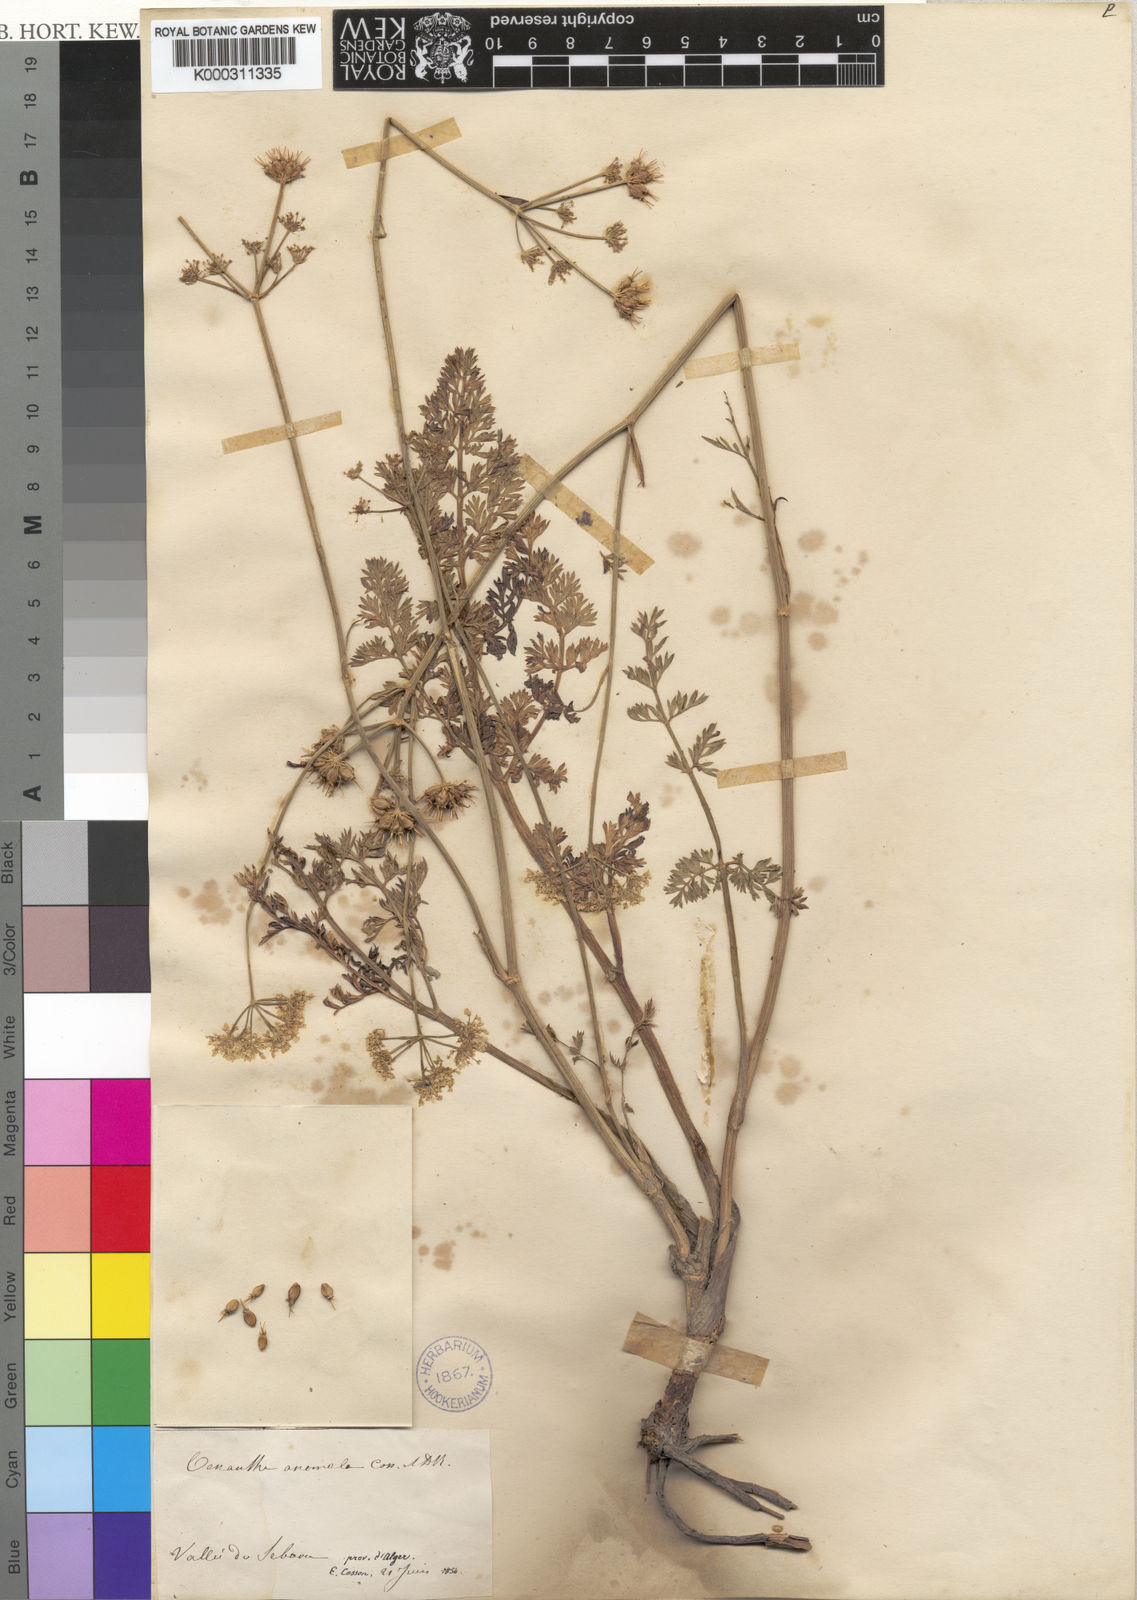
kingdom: Plantae
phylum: Tracheophyta
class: Magnoliopsida
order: Apiales
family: Apiaceae
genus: Oenanthe
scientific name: Oenanthe virgata
